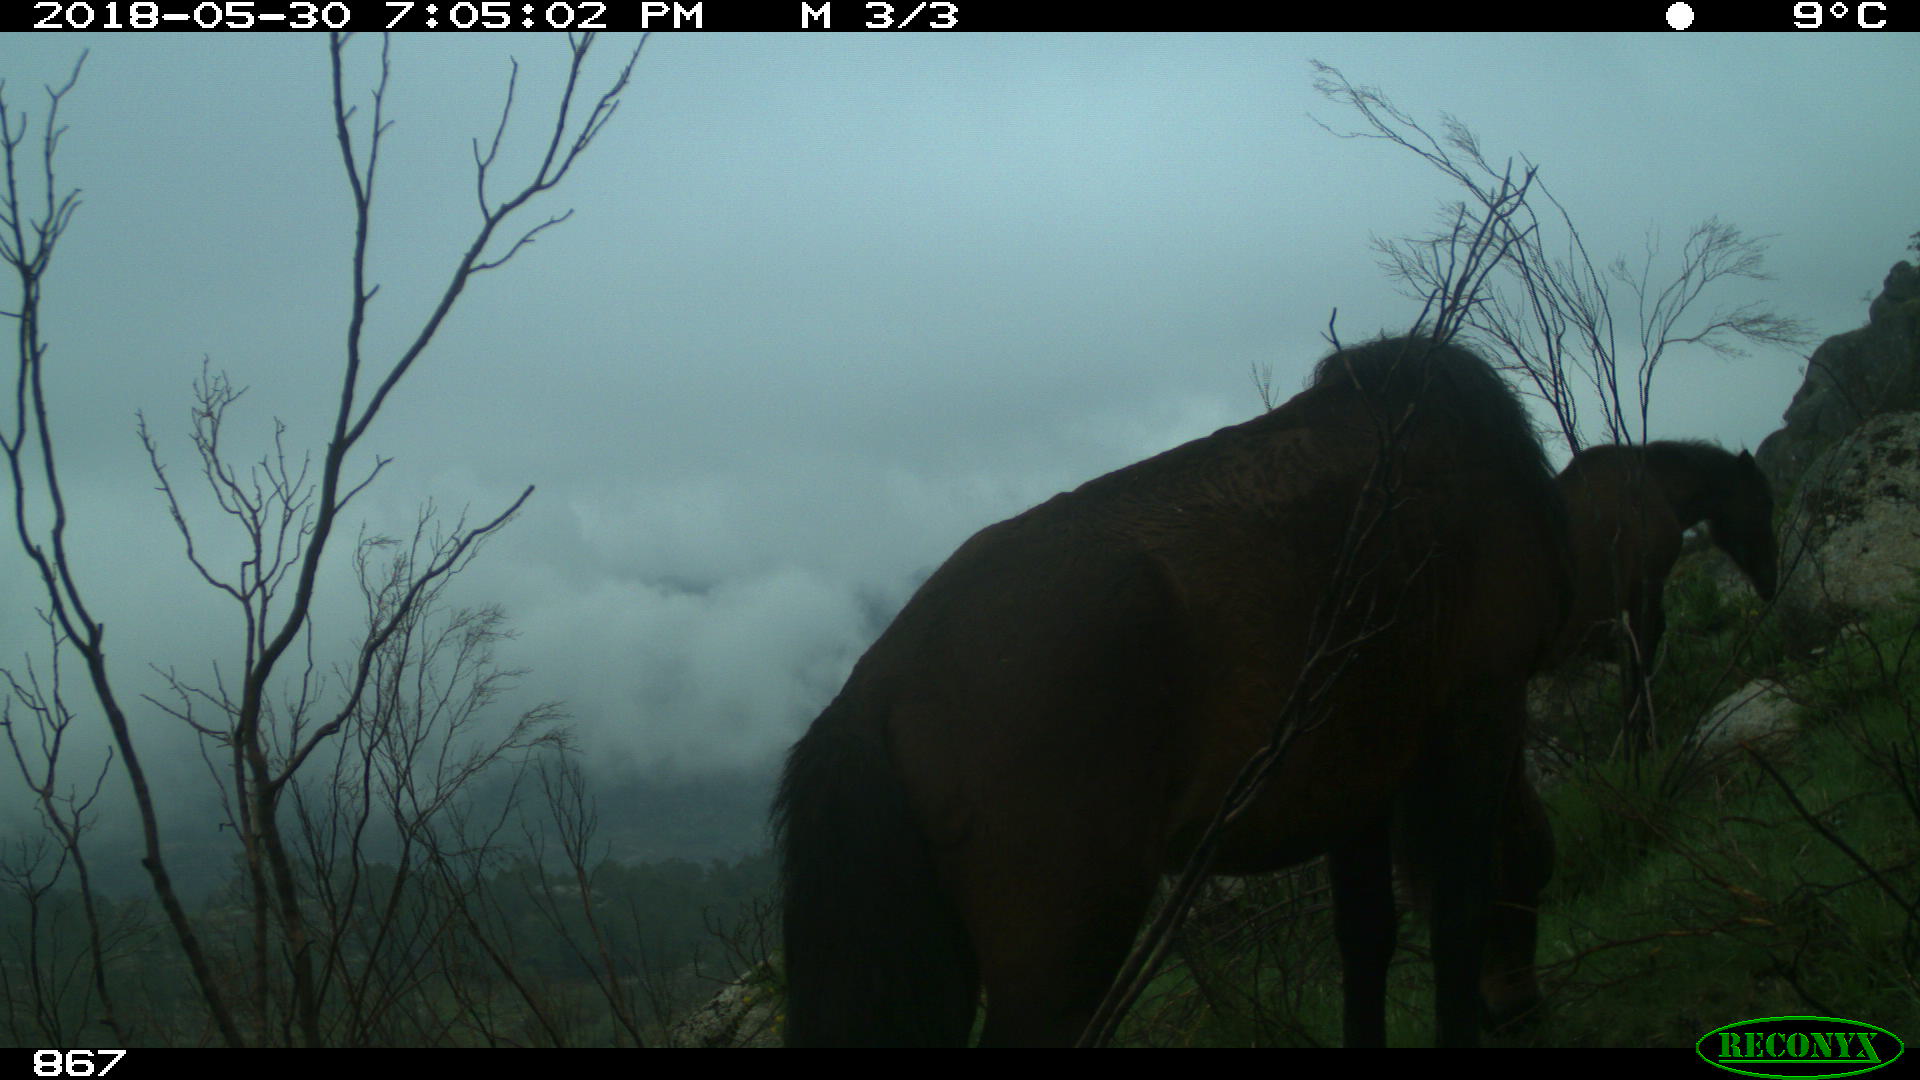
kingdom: Animalia
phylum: Chordata
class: Mammalia
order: Perissodactyla
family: Equidae
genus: Equus
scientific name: Equus caballus
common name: Horse
